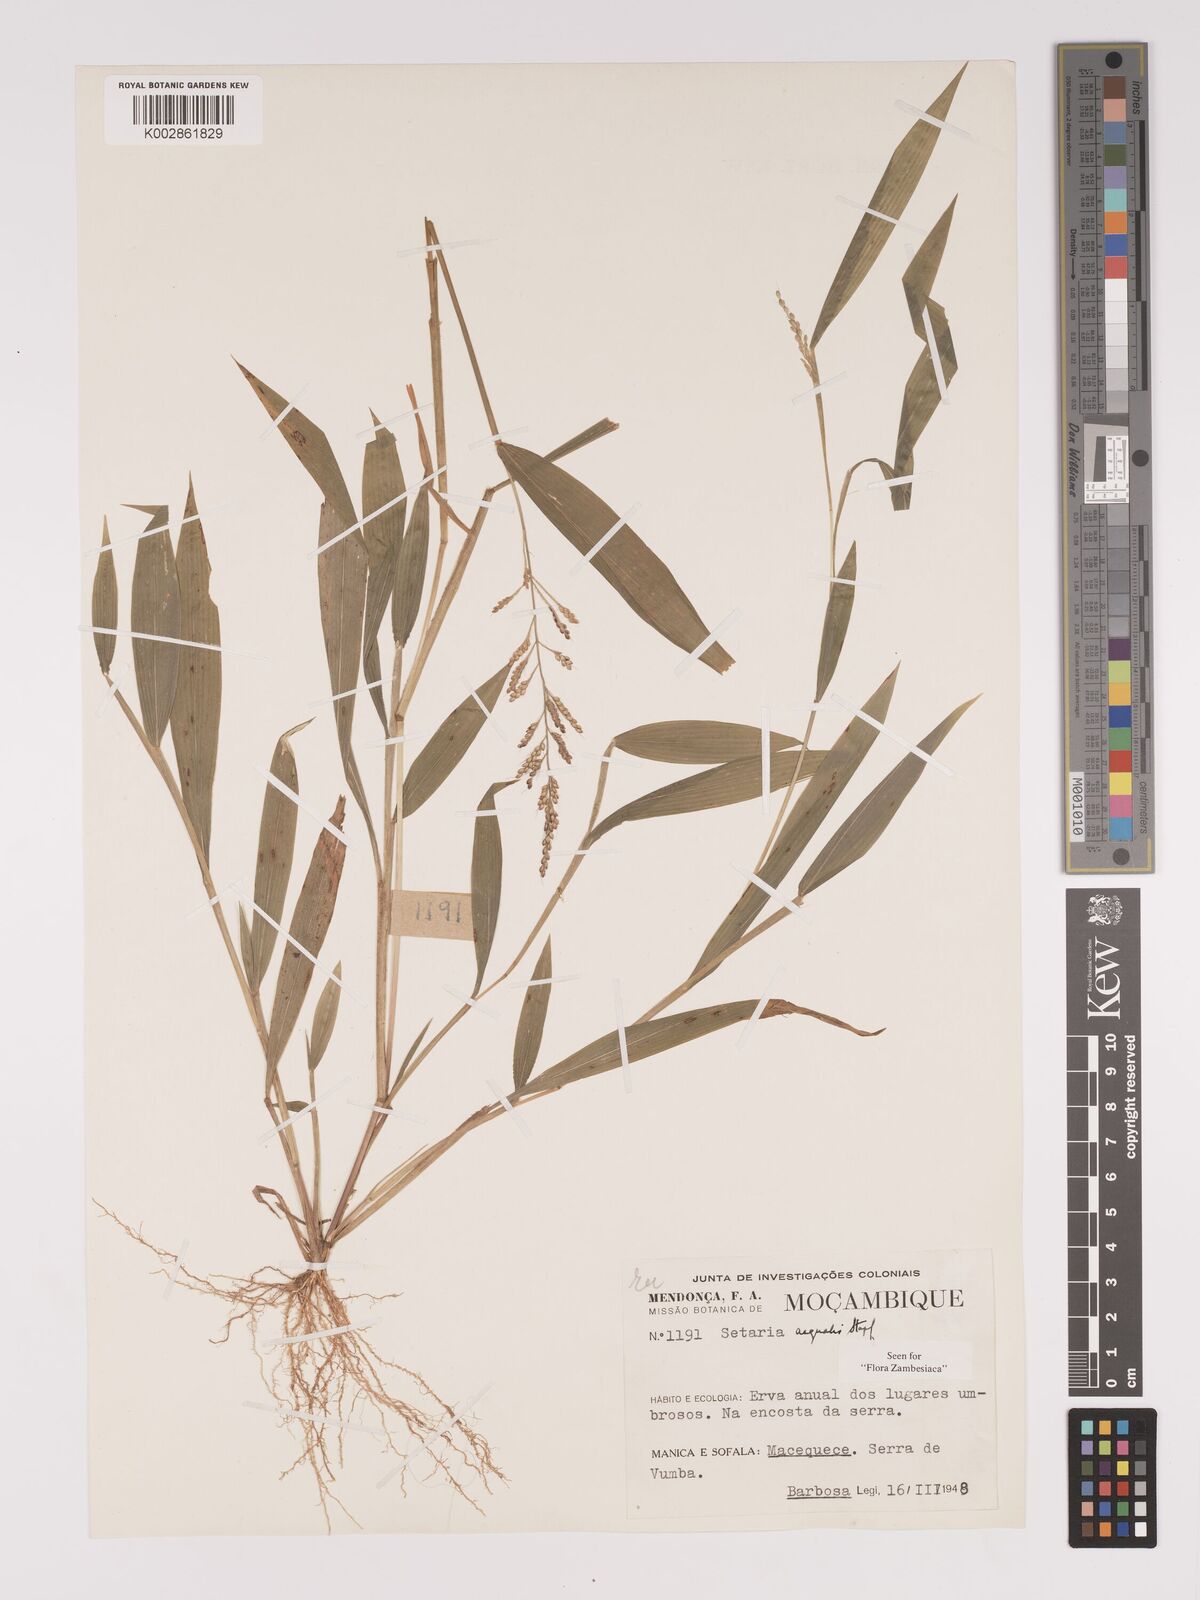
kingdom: Plantae
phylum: Tracheophyta
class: Liliopsida
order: Poales
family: Poaceae
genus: Setaria
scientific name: Setaria homonyma
